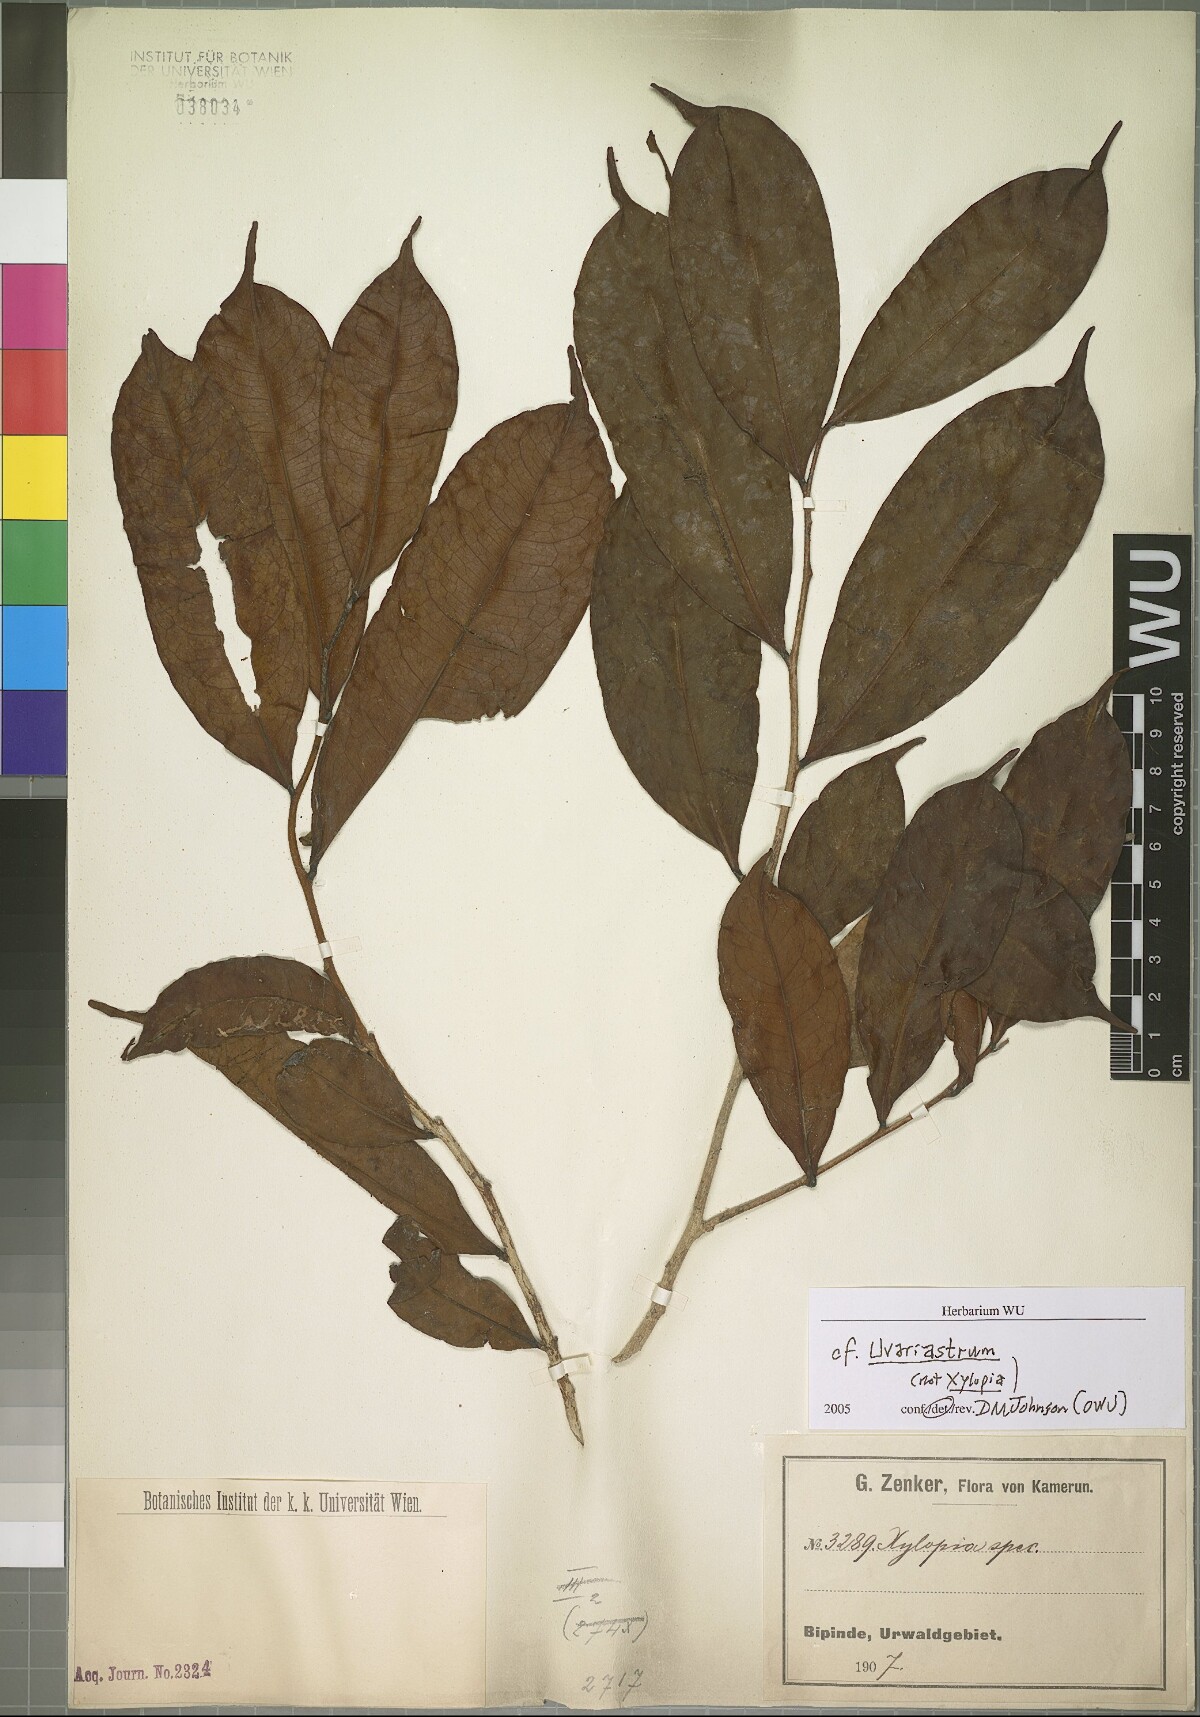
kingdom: Plantae
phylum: Tracheophyta
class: Magnoliopsida
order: Magnoliales
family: Annonaceae
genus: Uvariastrum
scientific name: Uvariastrum
